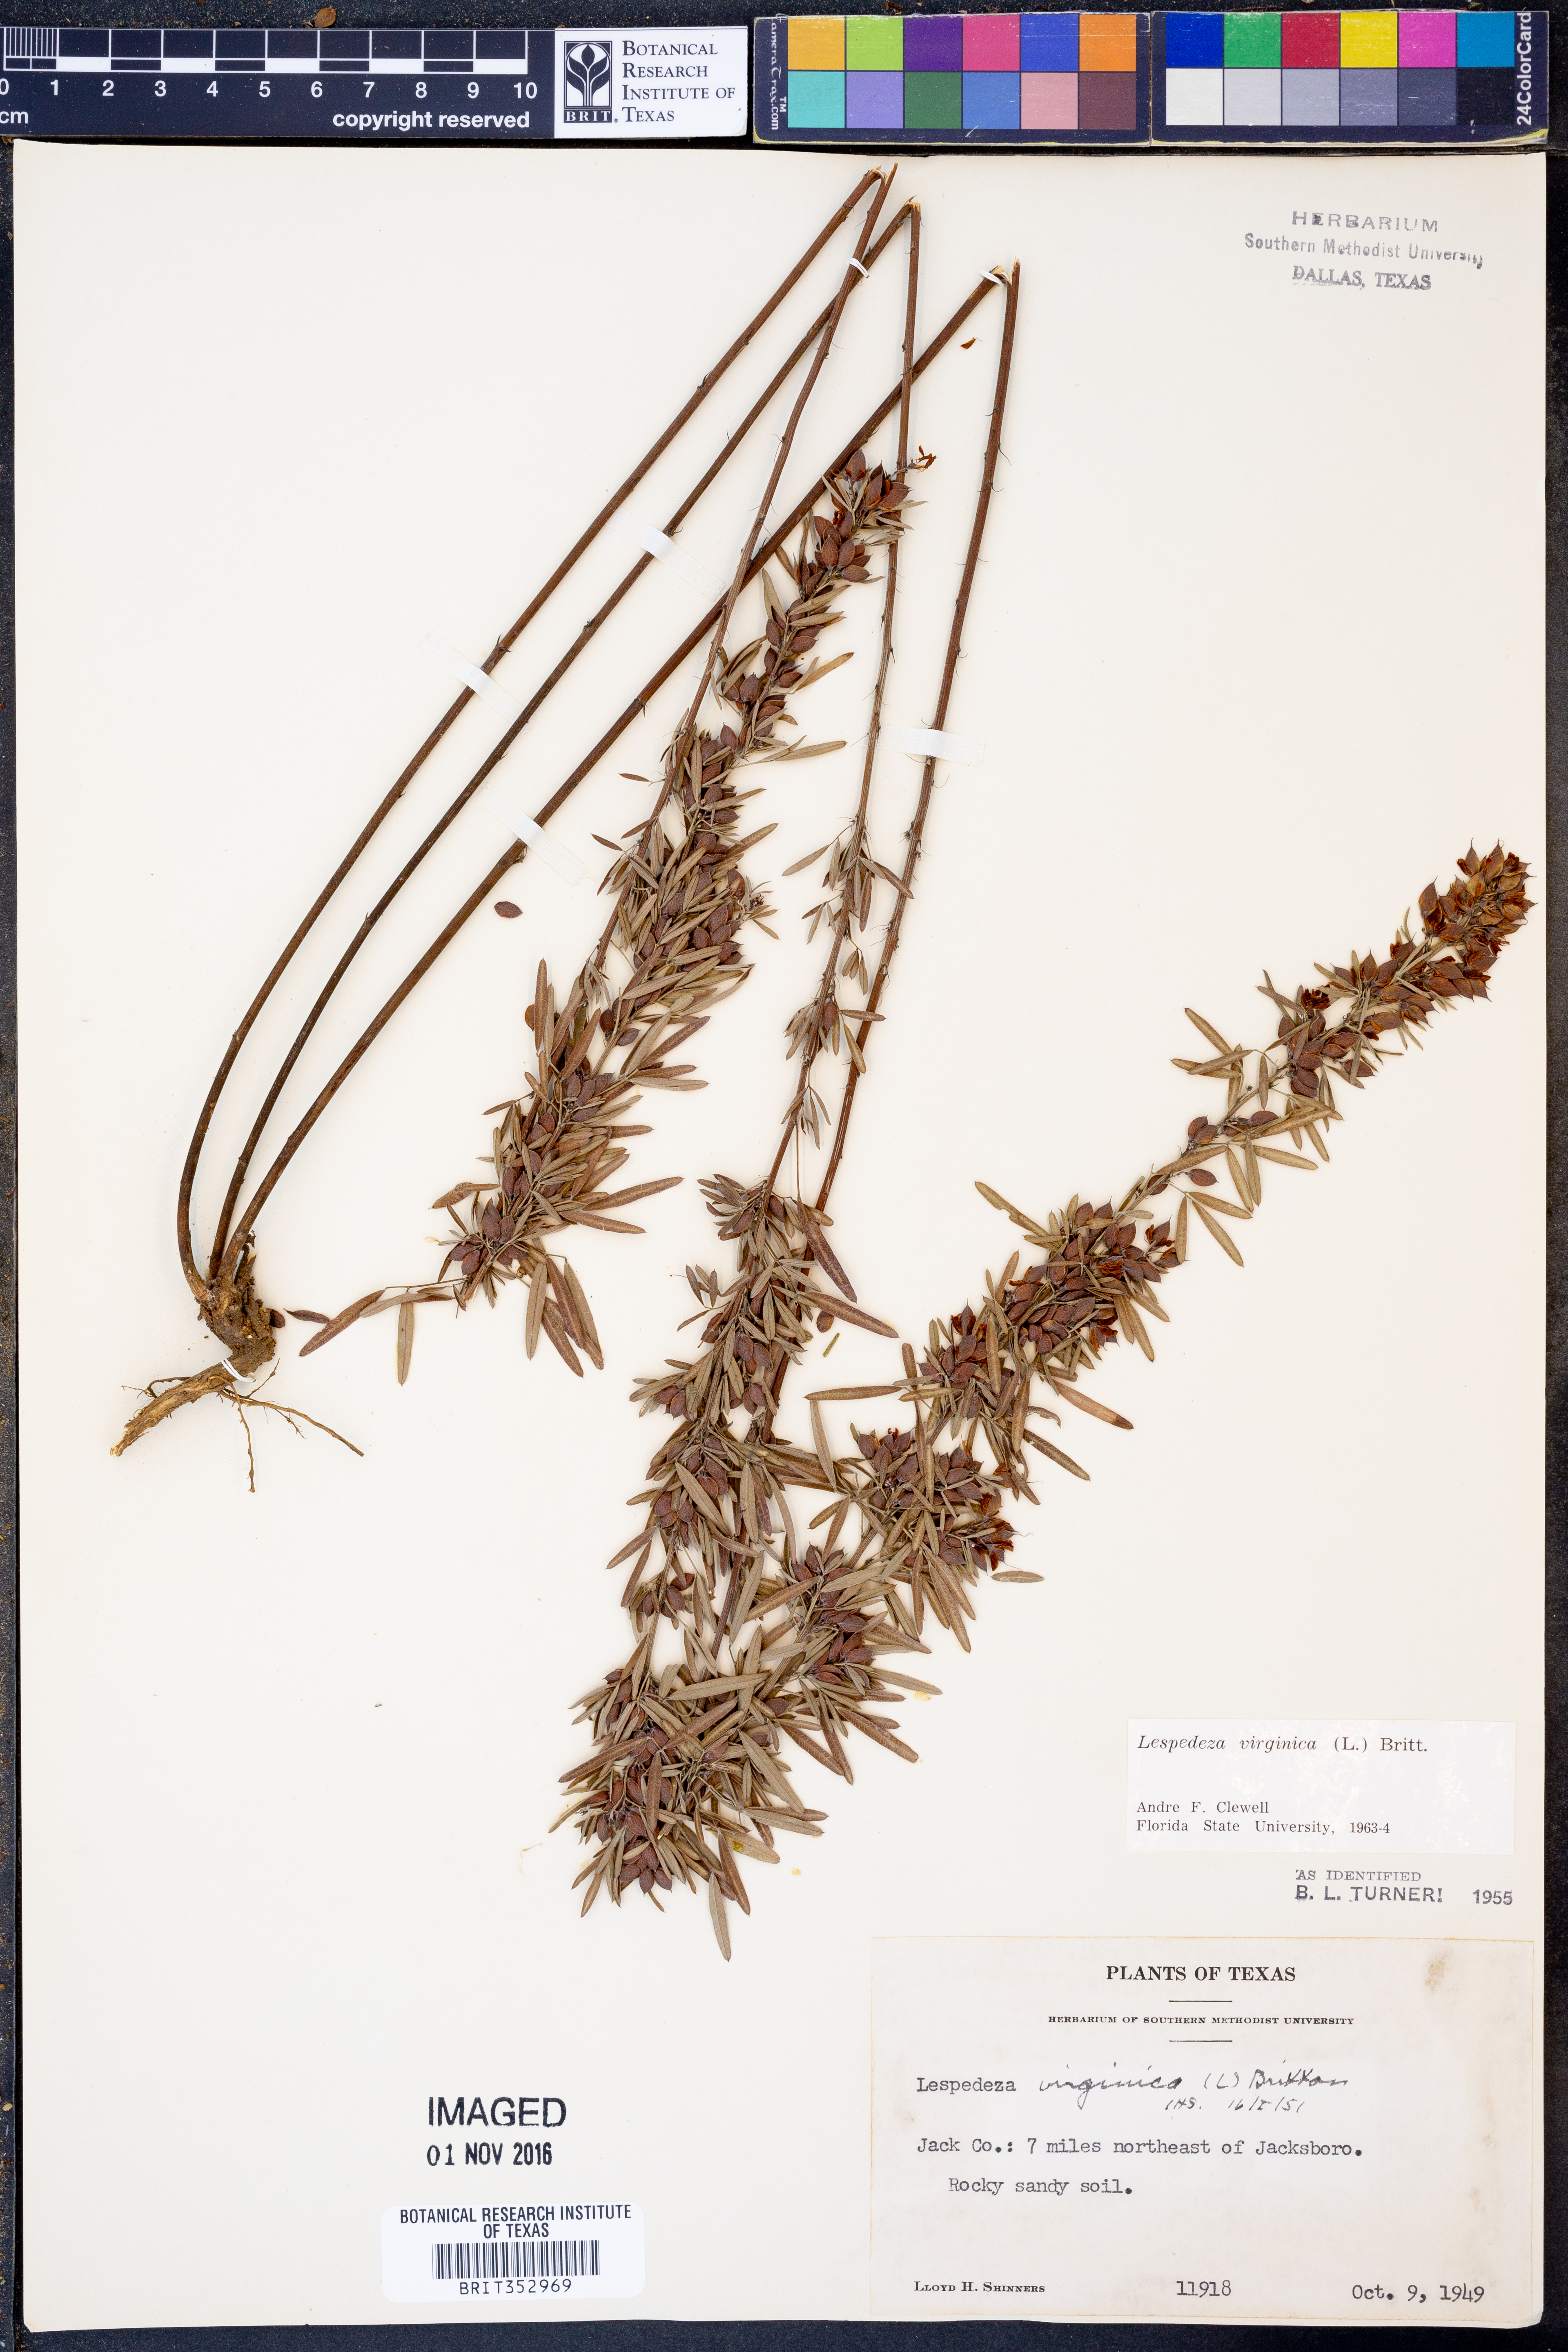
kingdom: Plantae
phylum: Tracheophyta
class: Magnoliopsida
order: Fabales
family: Fabaceae
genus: Lespedeza
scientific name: Lespedeza virginica
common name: Slender bush-clover
